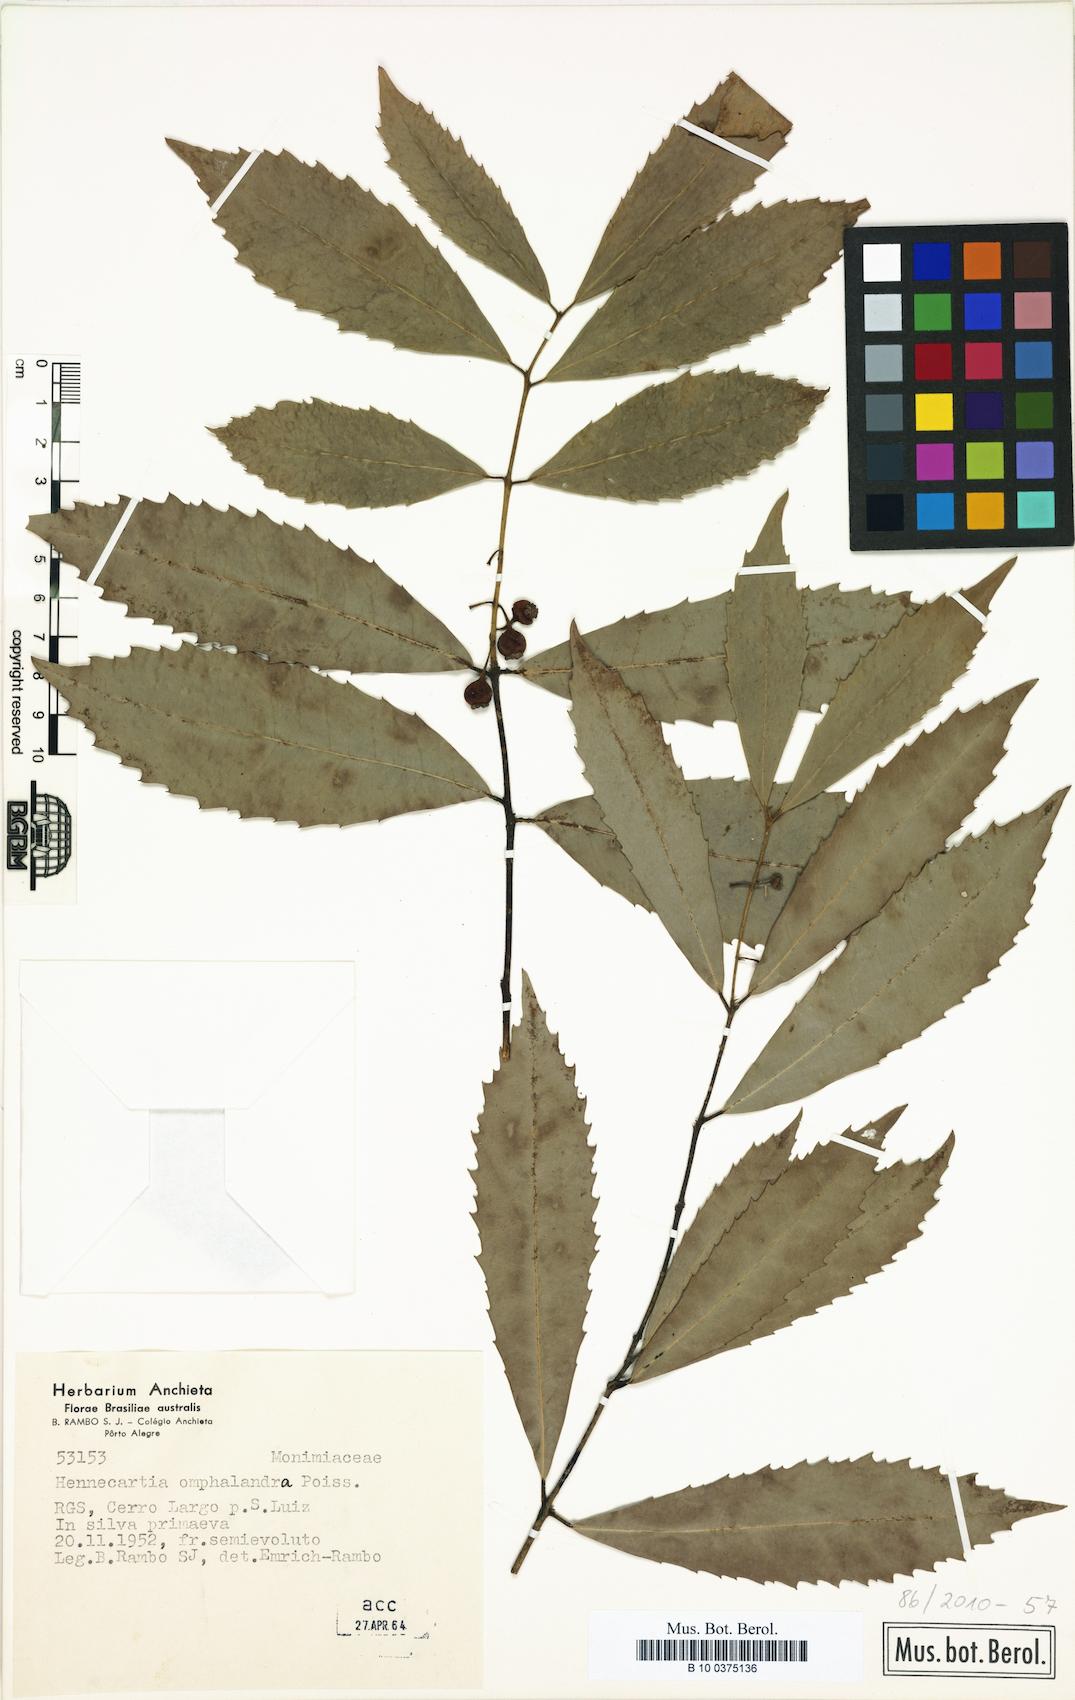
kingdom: Plantae
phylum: Tracheophyta
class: Magnoliopsida
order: Laurales
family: Monimiaceae
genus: Hennecartia
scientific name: Hennecartia omphalandra
